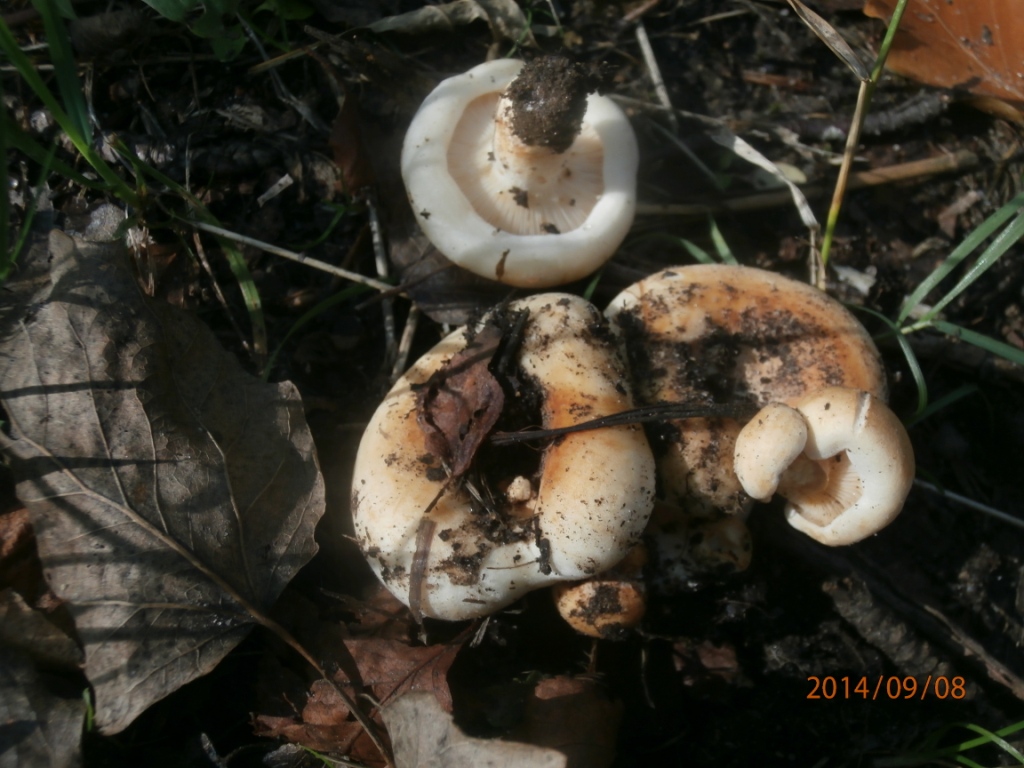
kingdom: Fungi
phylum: Basidiomycota
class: Agaricomycetes
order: Russulales
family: Russulaceae
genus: Lactarius
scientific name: Lactarius controversus
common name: rosabladet mælkehat
